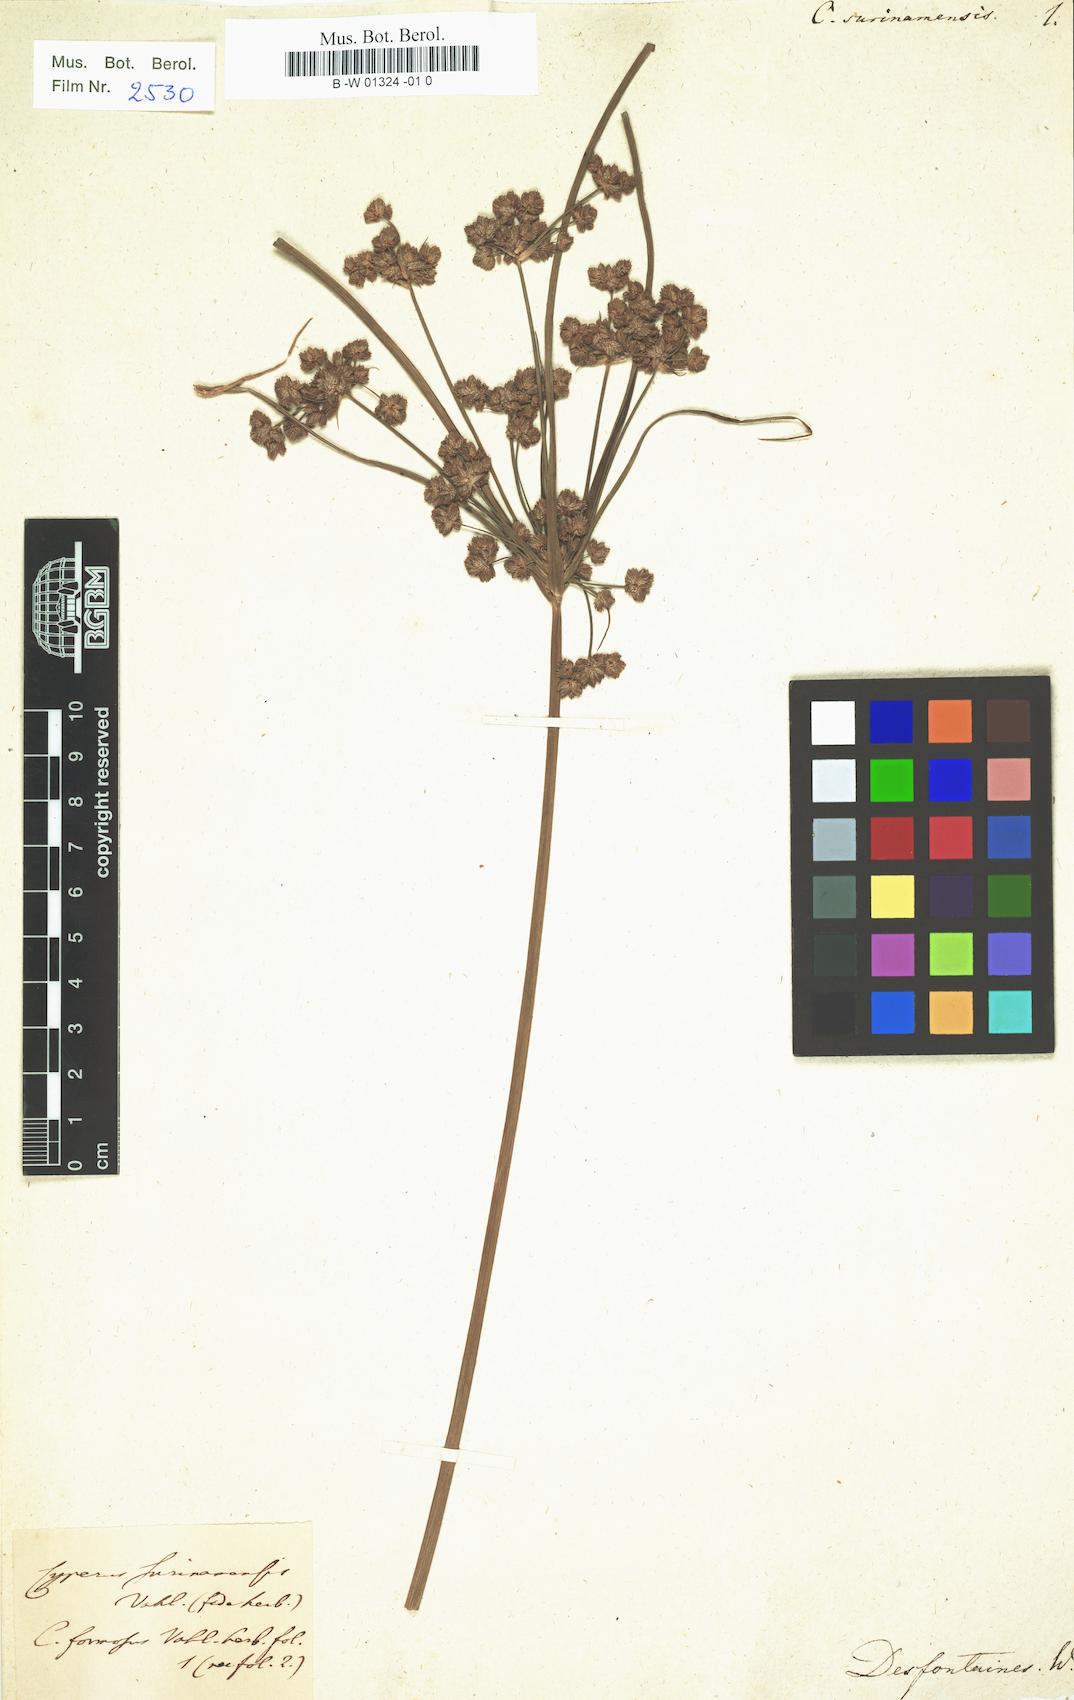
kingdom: Plantae
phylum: Tracheophyta
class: Liliopsida
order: Poales
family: Cyperaceae
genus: Cyperus
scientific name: Cyperus surinamensis
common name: Tropical flat sedge
